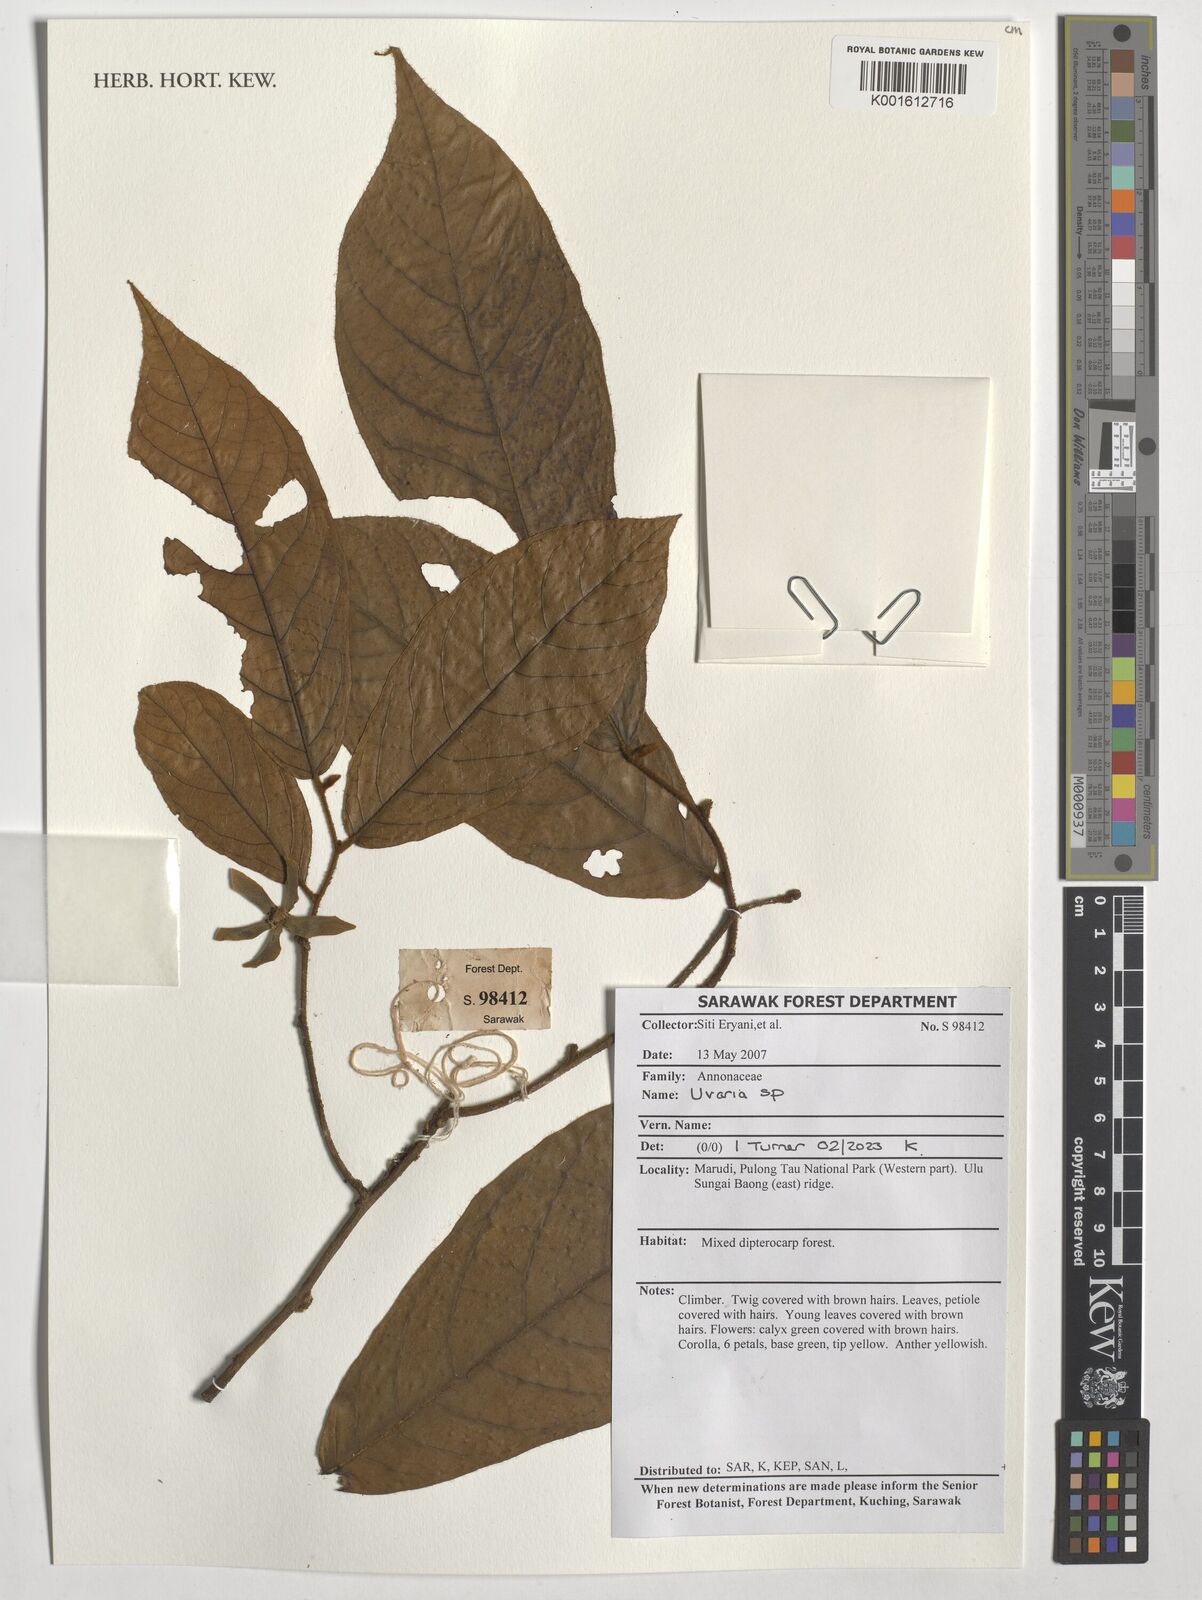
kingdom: Plantae
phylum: Tracheophyta
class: Magnoliopsida
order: Magnoliales
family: Annonaceae
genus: Uvaria
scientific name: Uvaria
